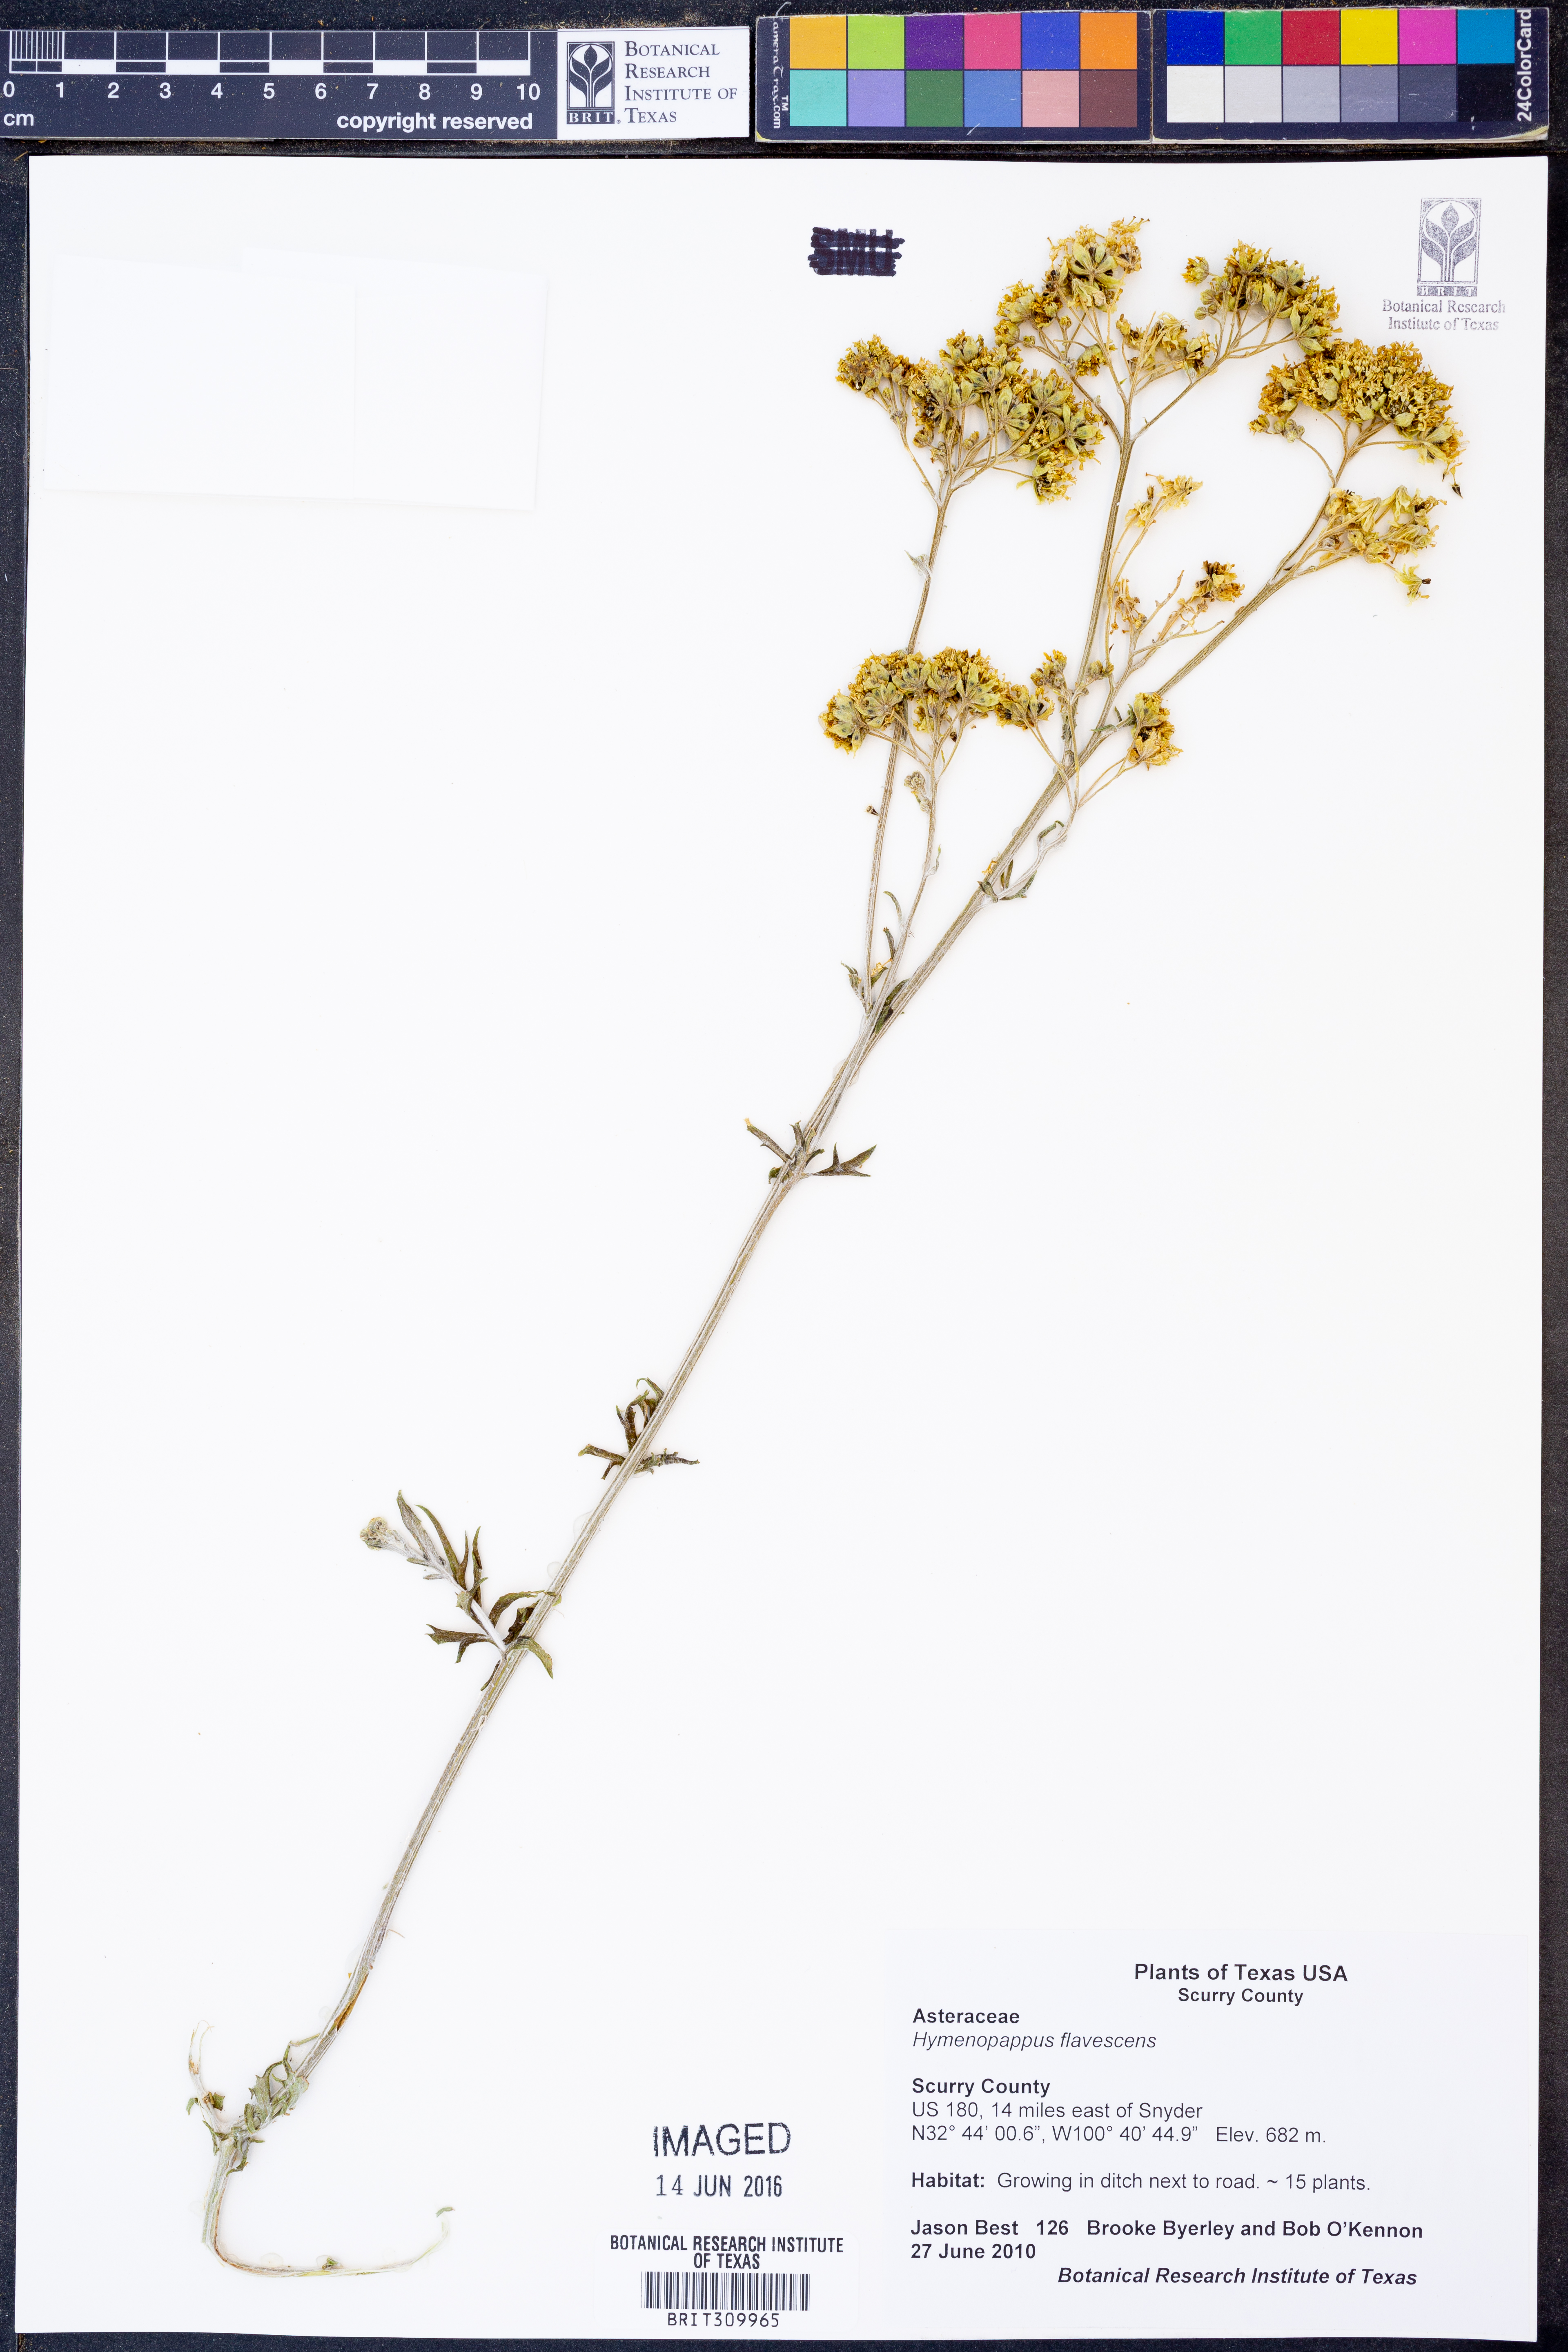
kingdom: Plantae
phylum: Tracheophyta
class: Magnoliopsida
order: Asterales
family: Asteraceae
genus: Hymenopappus
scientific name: Hymenopappus flavescens
